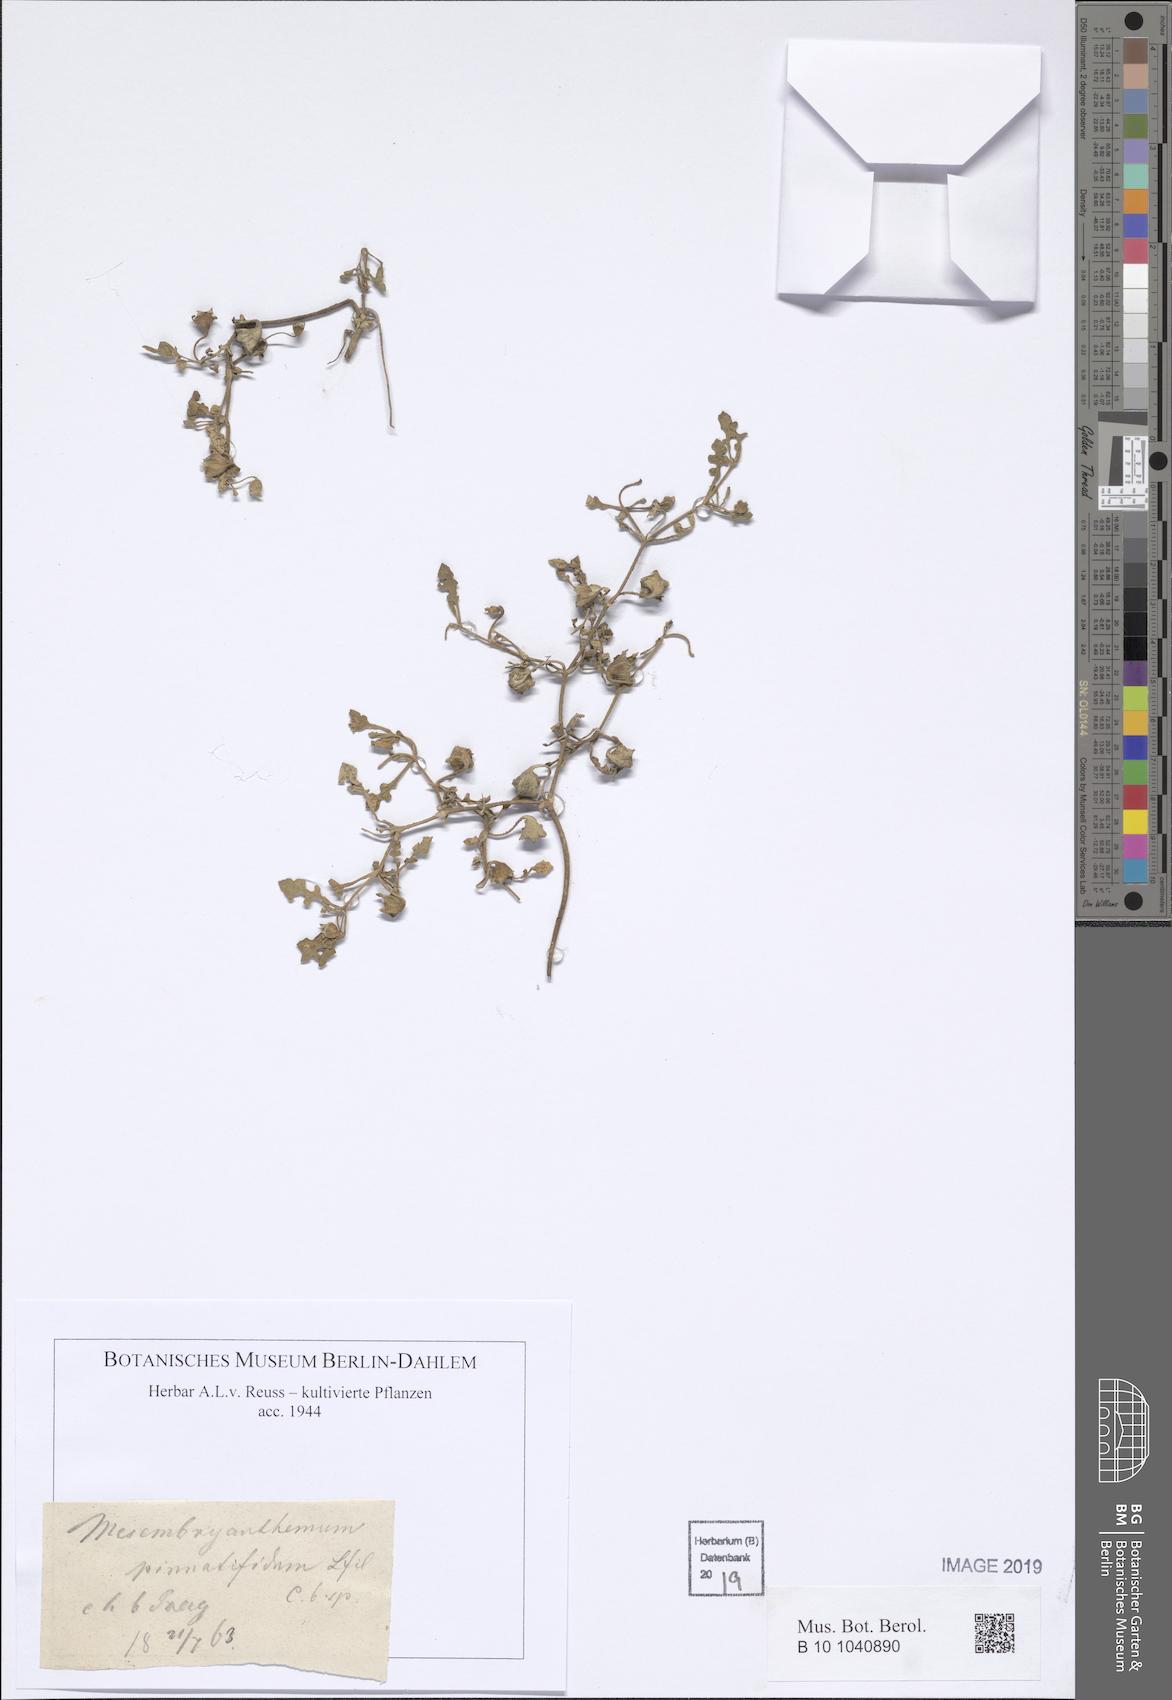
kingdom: Plantae
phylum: Tracheophyta
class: Magnoliopsida
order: Caryophyllales
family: Aizoaceae
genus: Cleretum
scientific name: Cleretum pinnatifidum
